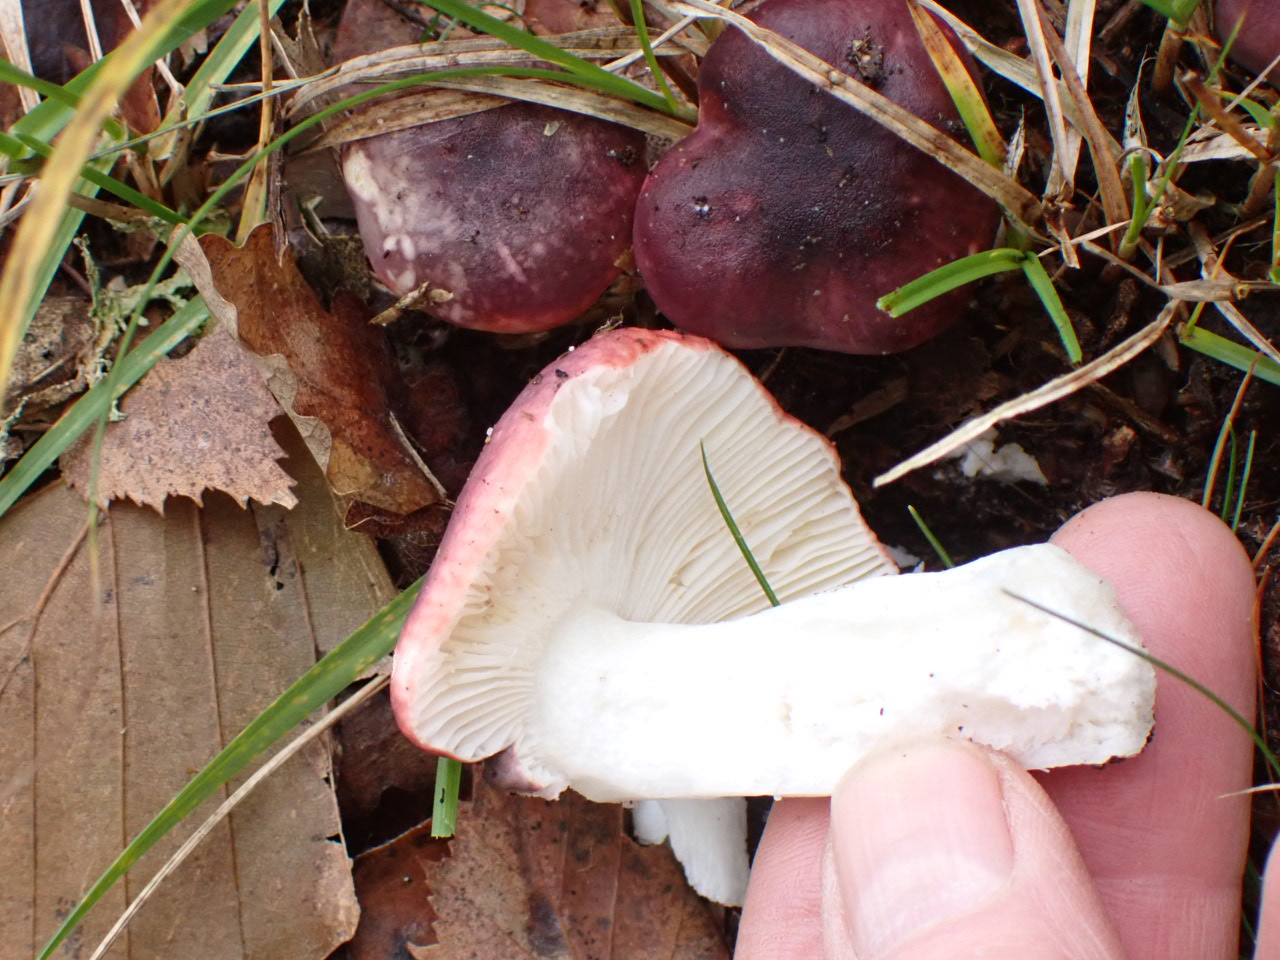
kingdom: Fungi
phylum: Basidiomycota
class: Agaricomycetes
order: Russulales
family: Russulaceae
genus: Russula
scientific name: Russula atropurpurea
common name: purpurbroget skørhat
